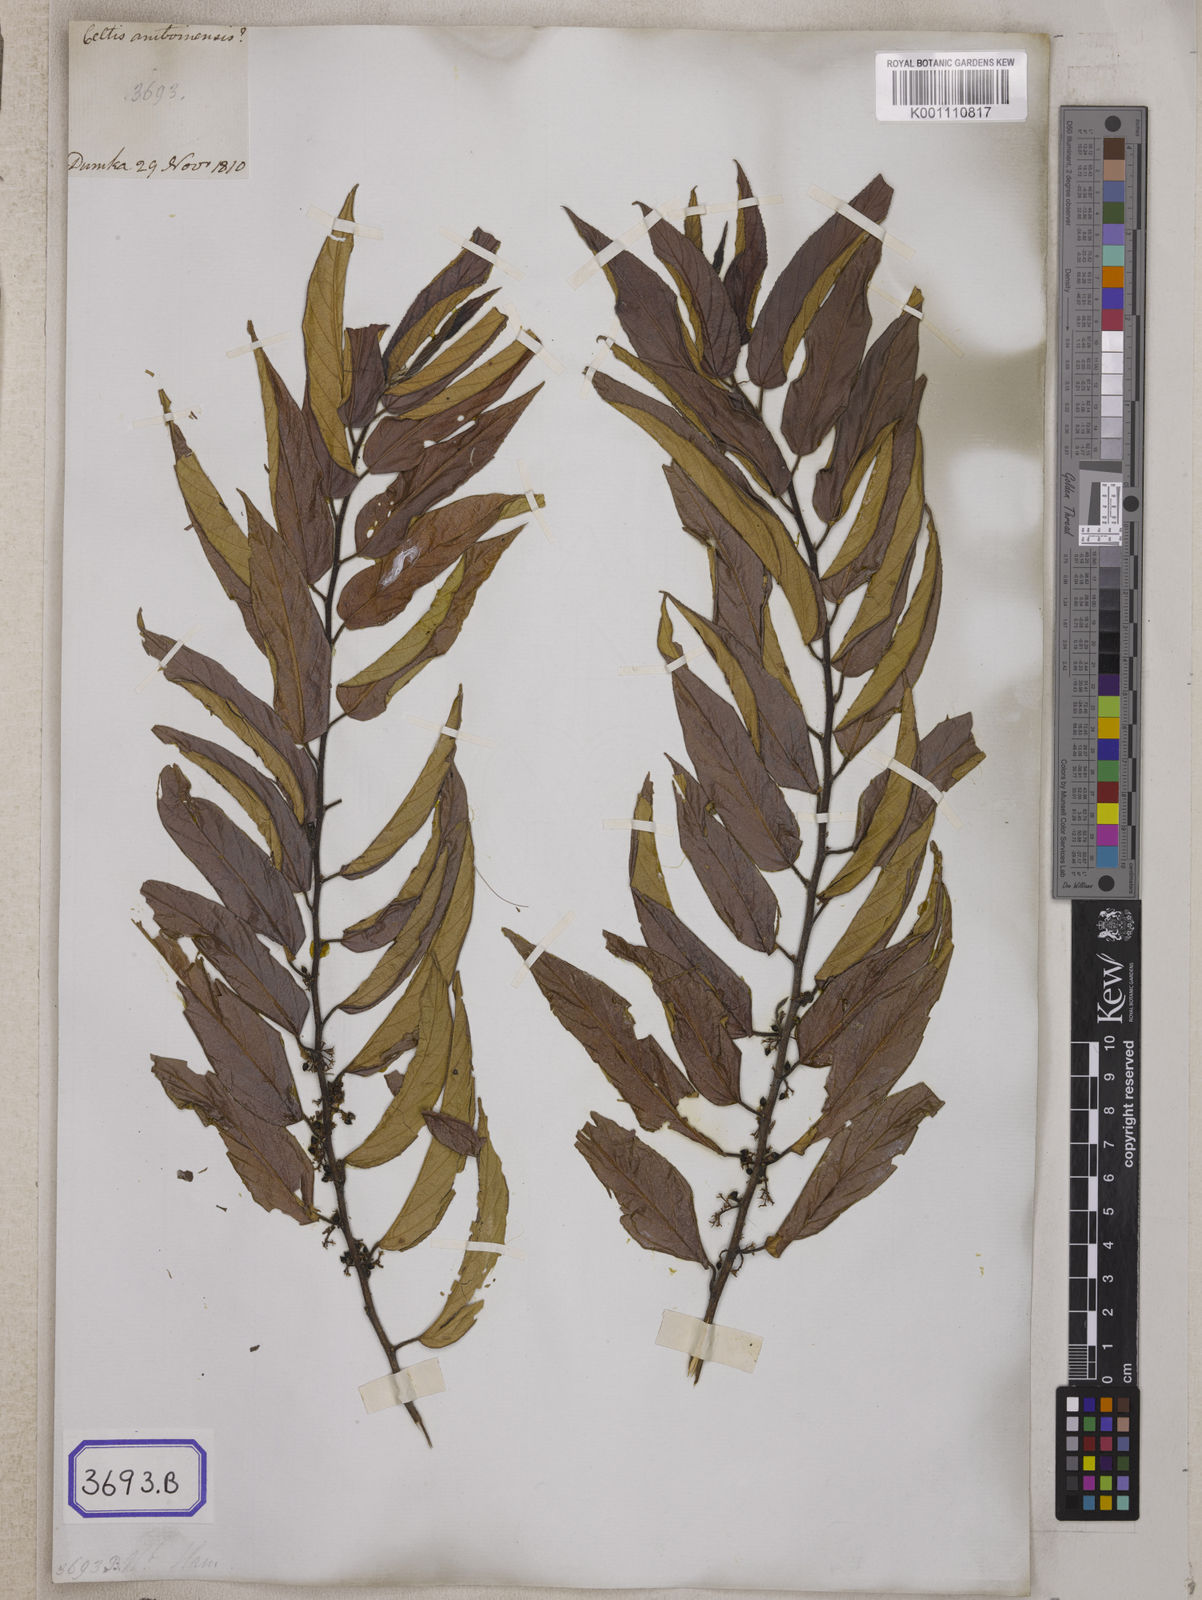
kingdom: Plantae
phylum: Tracheophyta
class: Magnoliopsida
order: Rosales
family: Cannabaceae
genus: Trema
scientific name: Trema politoria
